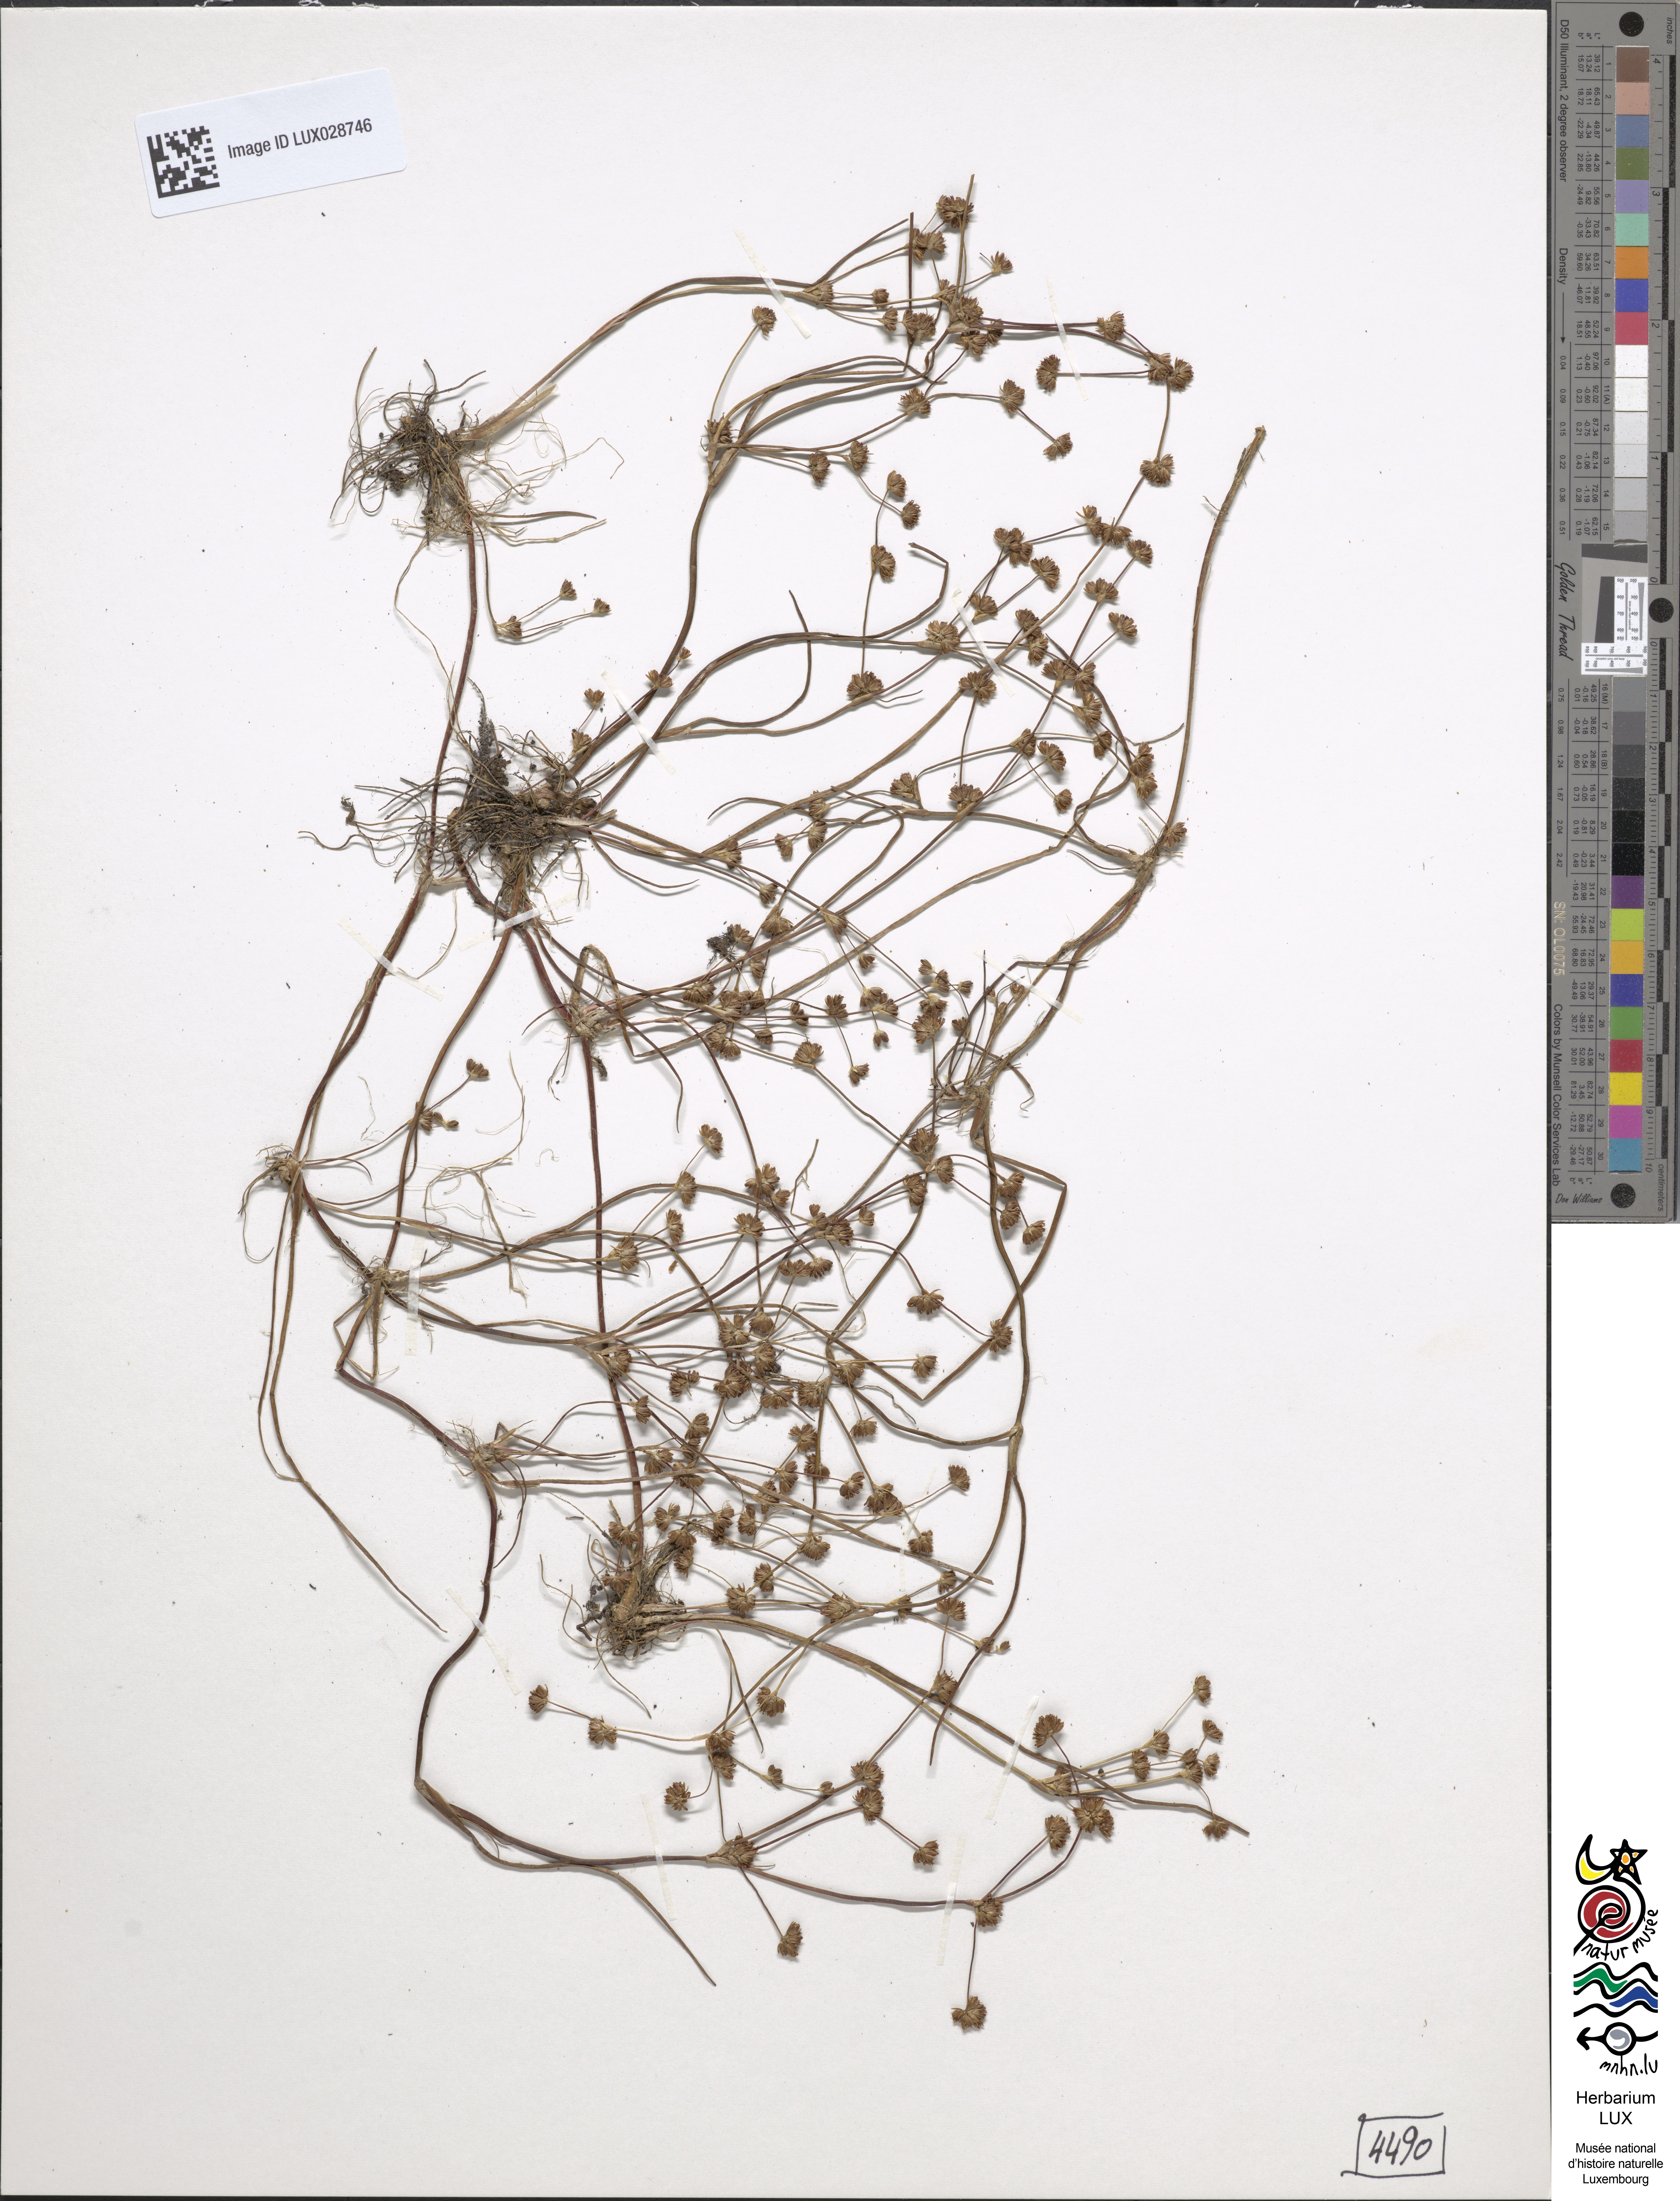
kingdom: Plantae
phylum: Tracheophyta
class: Liliopsida
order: Poales
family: Juncaceae
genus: Juncus
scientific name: Juncus bulbosus
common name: Bulbous rush
